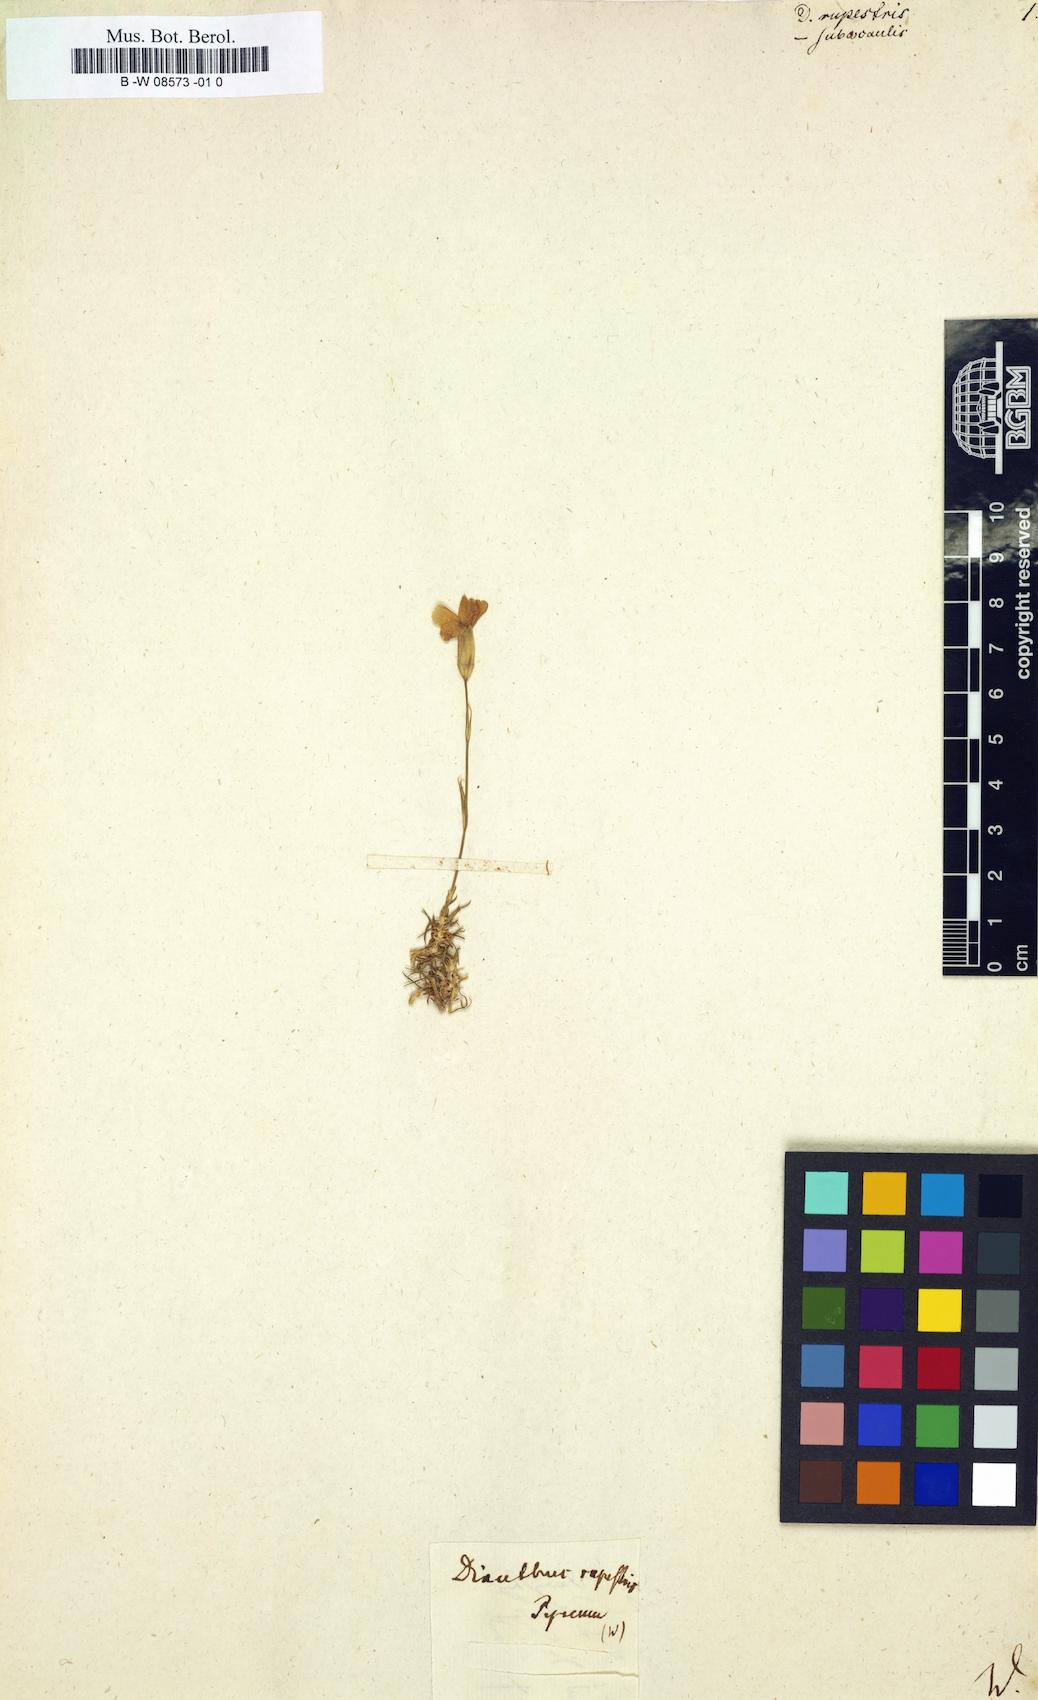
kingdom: Plantae
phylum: Tracheophyta
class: Magnoliopsida
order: Caryophyllales
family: Caryophyllaceae
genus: Dianthus
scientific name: Dianthus
